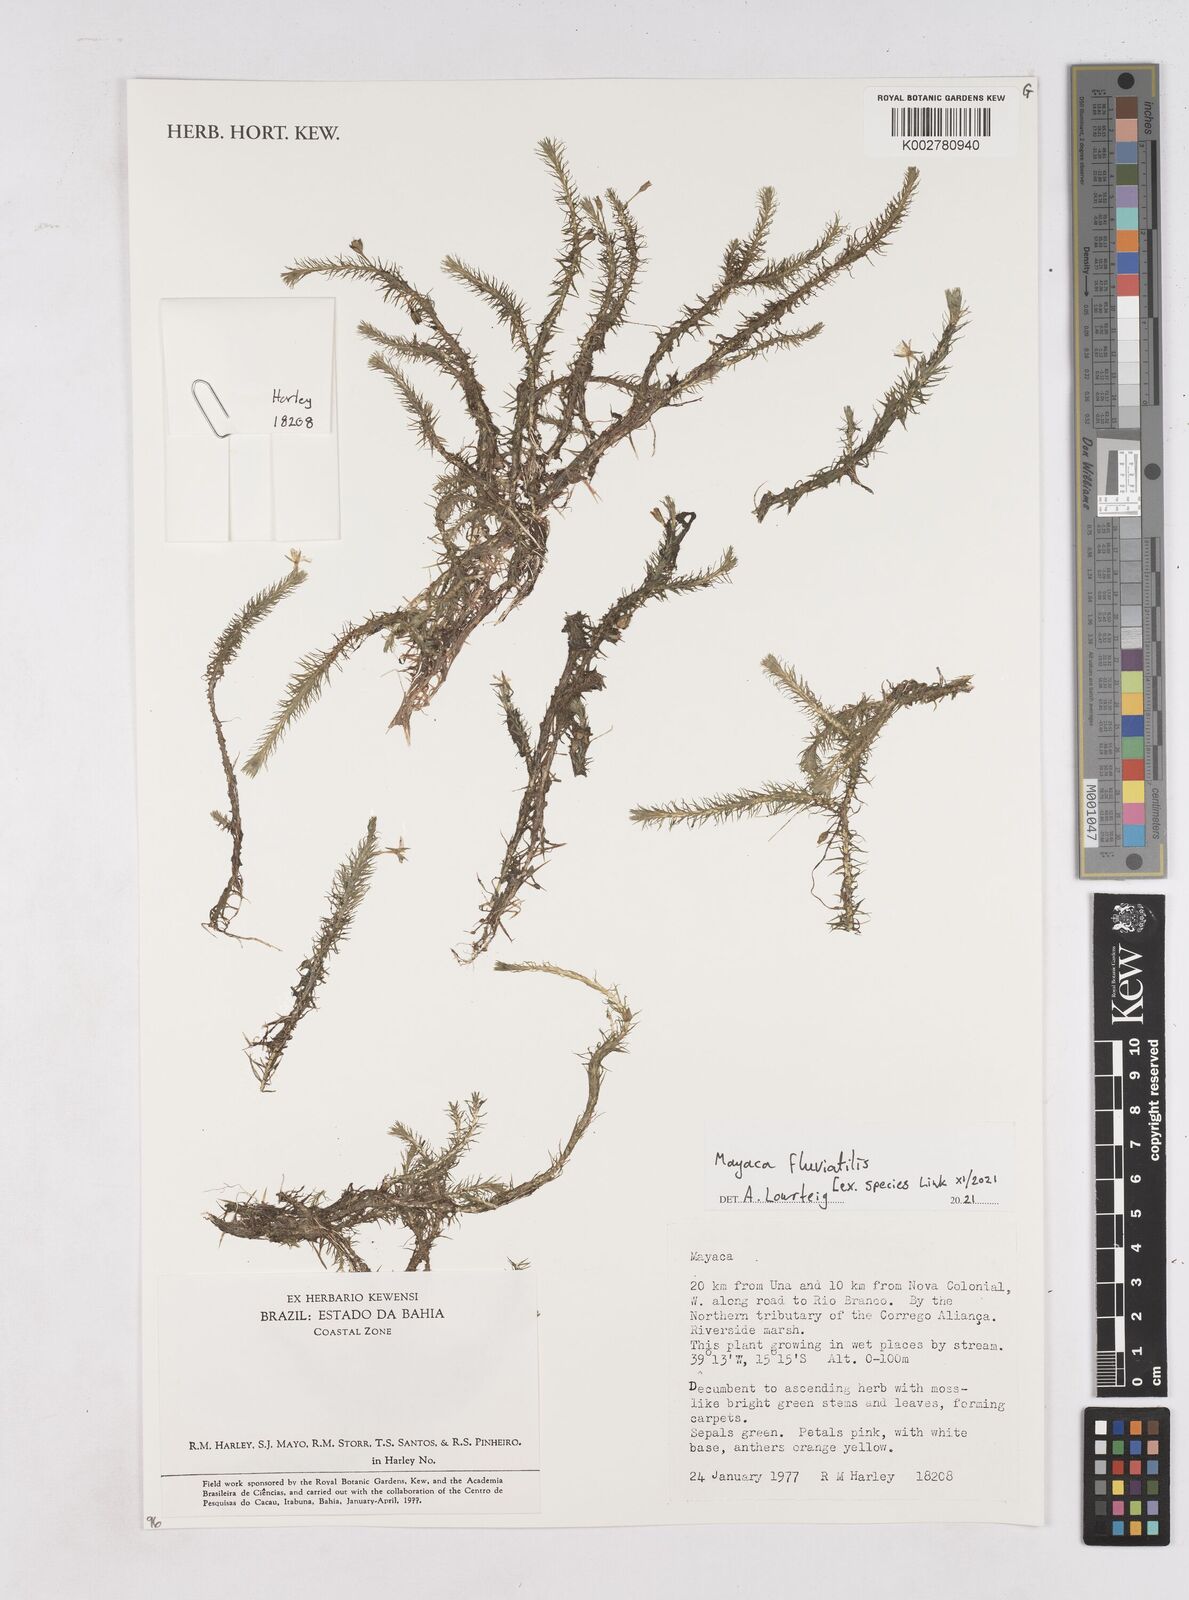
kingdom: Plantae
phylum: Tracheophyta
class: Liliopsida
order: Poales
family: Mayacaceae
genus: Mayaca
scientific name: Mayaca fluviatilis
